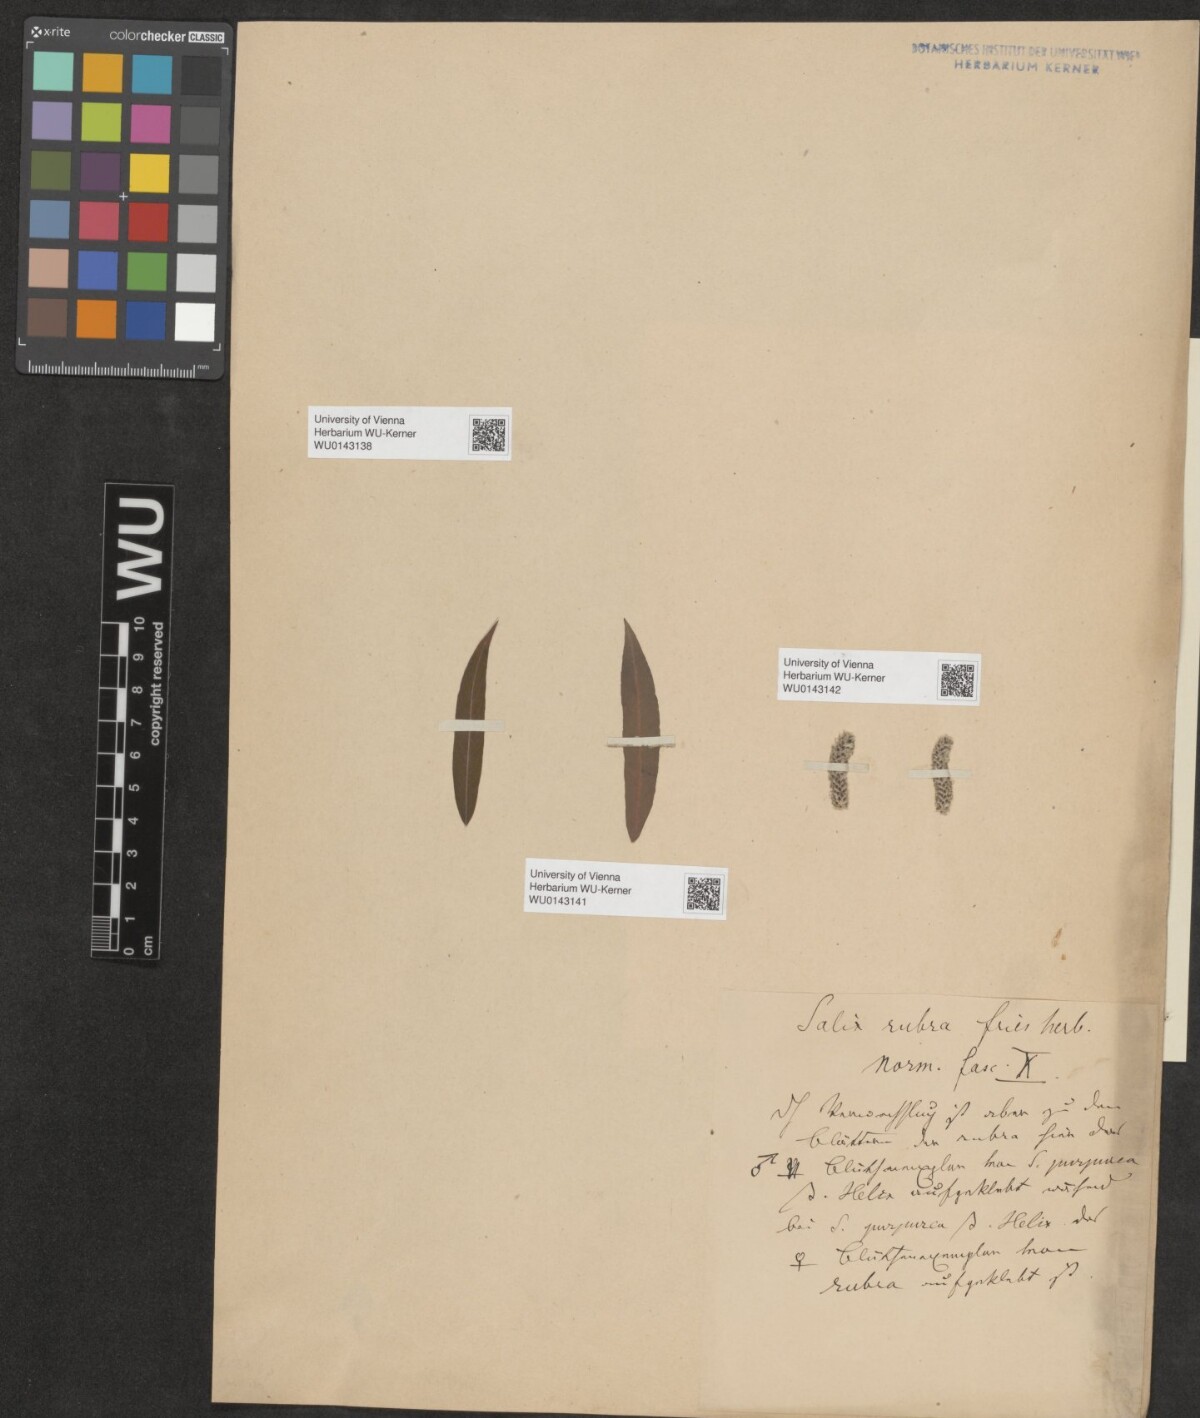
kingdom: Plantae
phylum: Tracheophyta
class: Magnoliopsida
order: Malpighiales
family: Salicaceae
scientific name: Salicaceae
